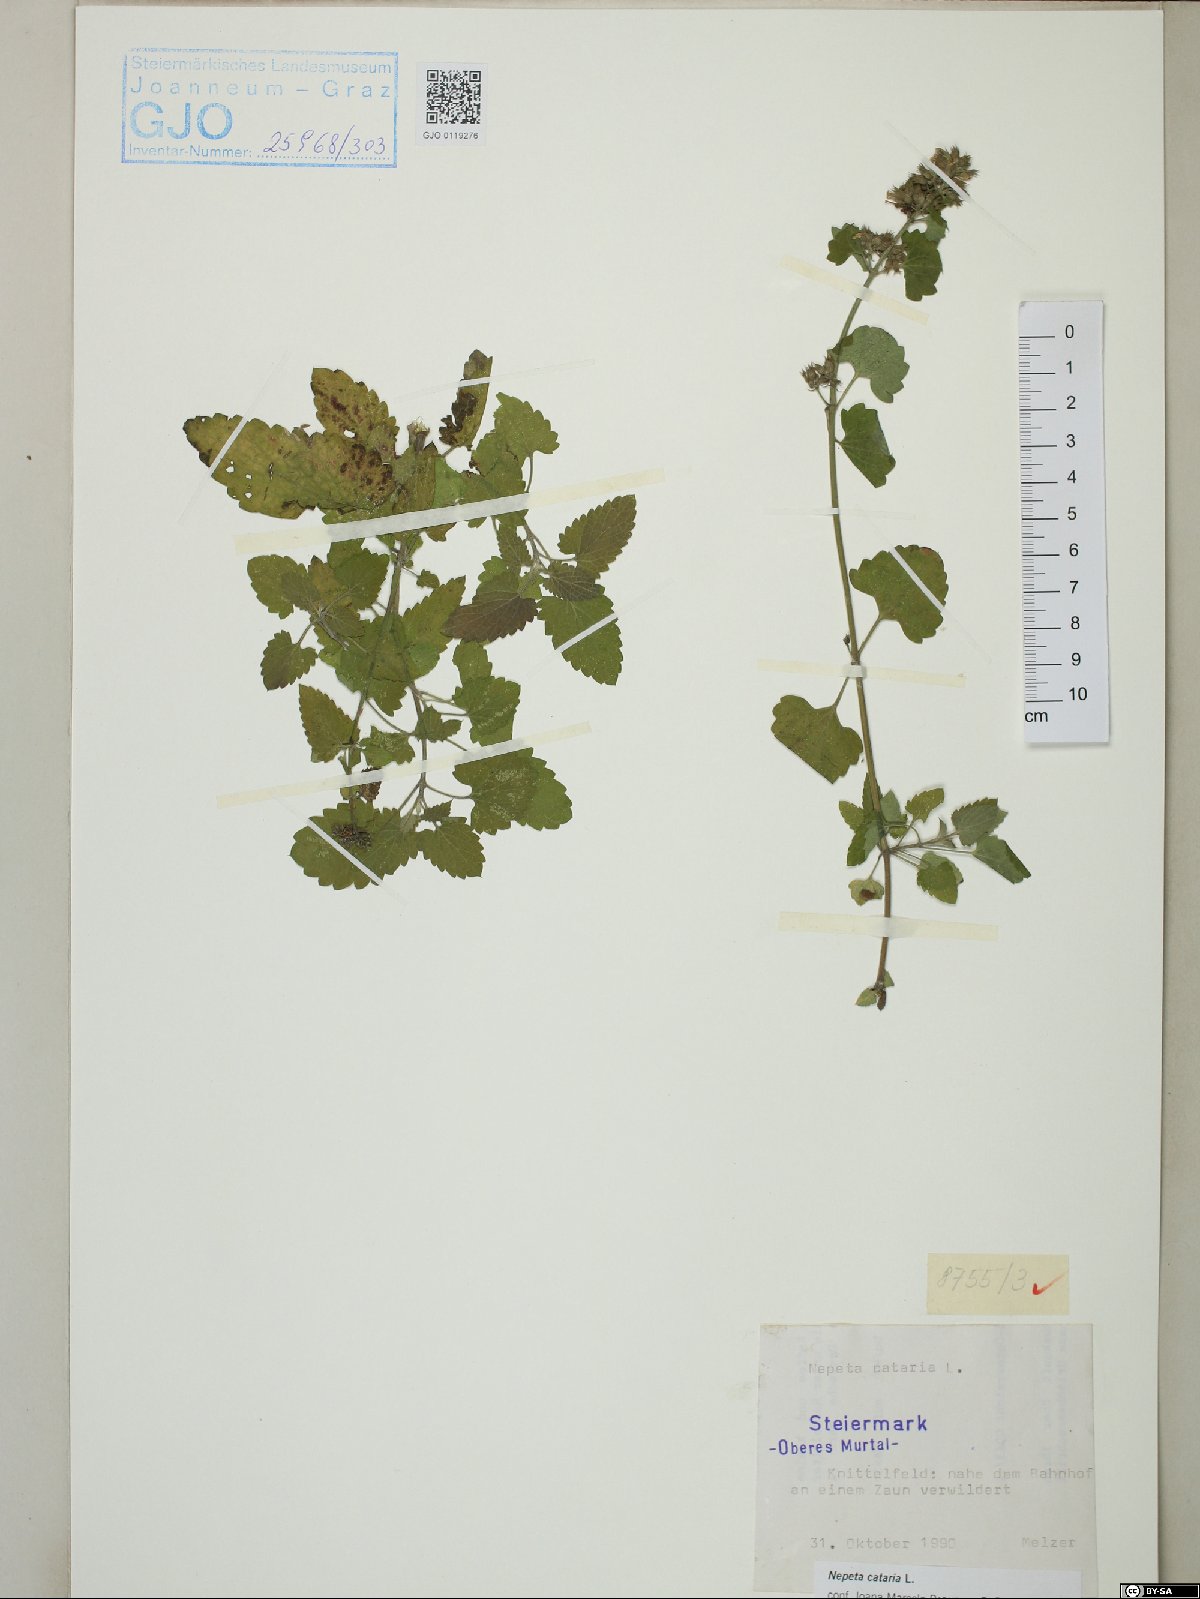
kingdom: Plantae
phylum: Tracheophyta
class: Magnoliopsida
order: Lamiales
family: Lamiaceae
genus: Nepeta
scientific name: Nepeta cataria
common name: Catnip
